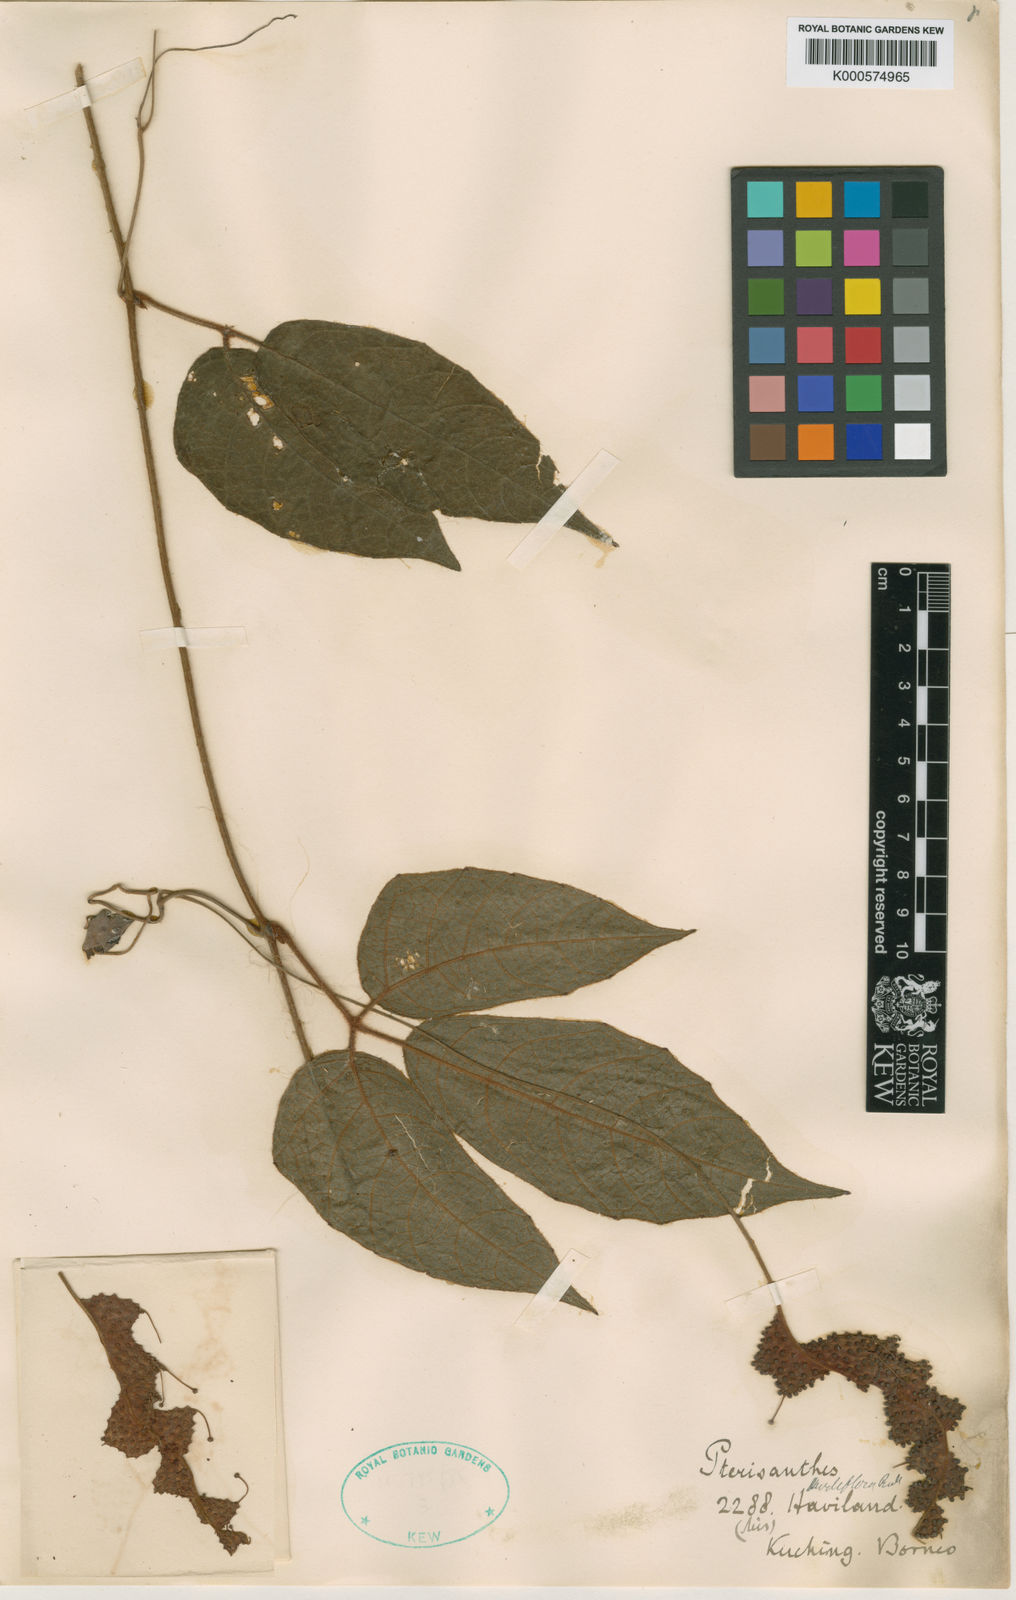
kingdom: Plantae
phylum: Tracheophyta
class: Magnoliopsida
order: Vitales
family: Vitaceae
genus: Pterisanthes
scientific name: Pterisanthes grandis
